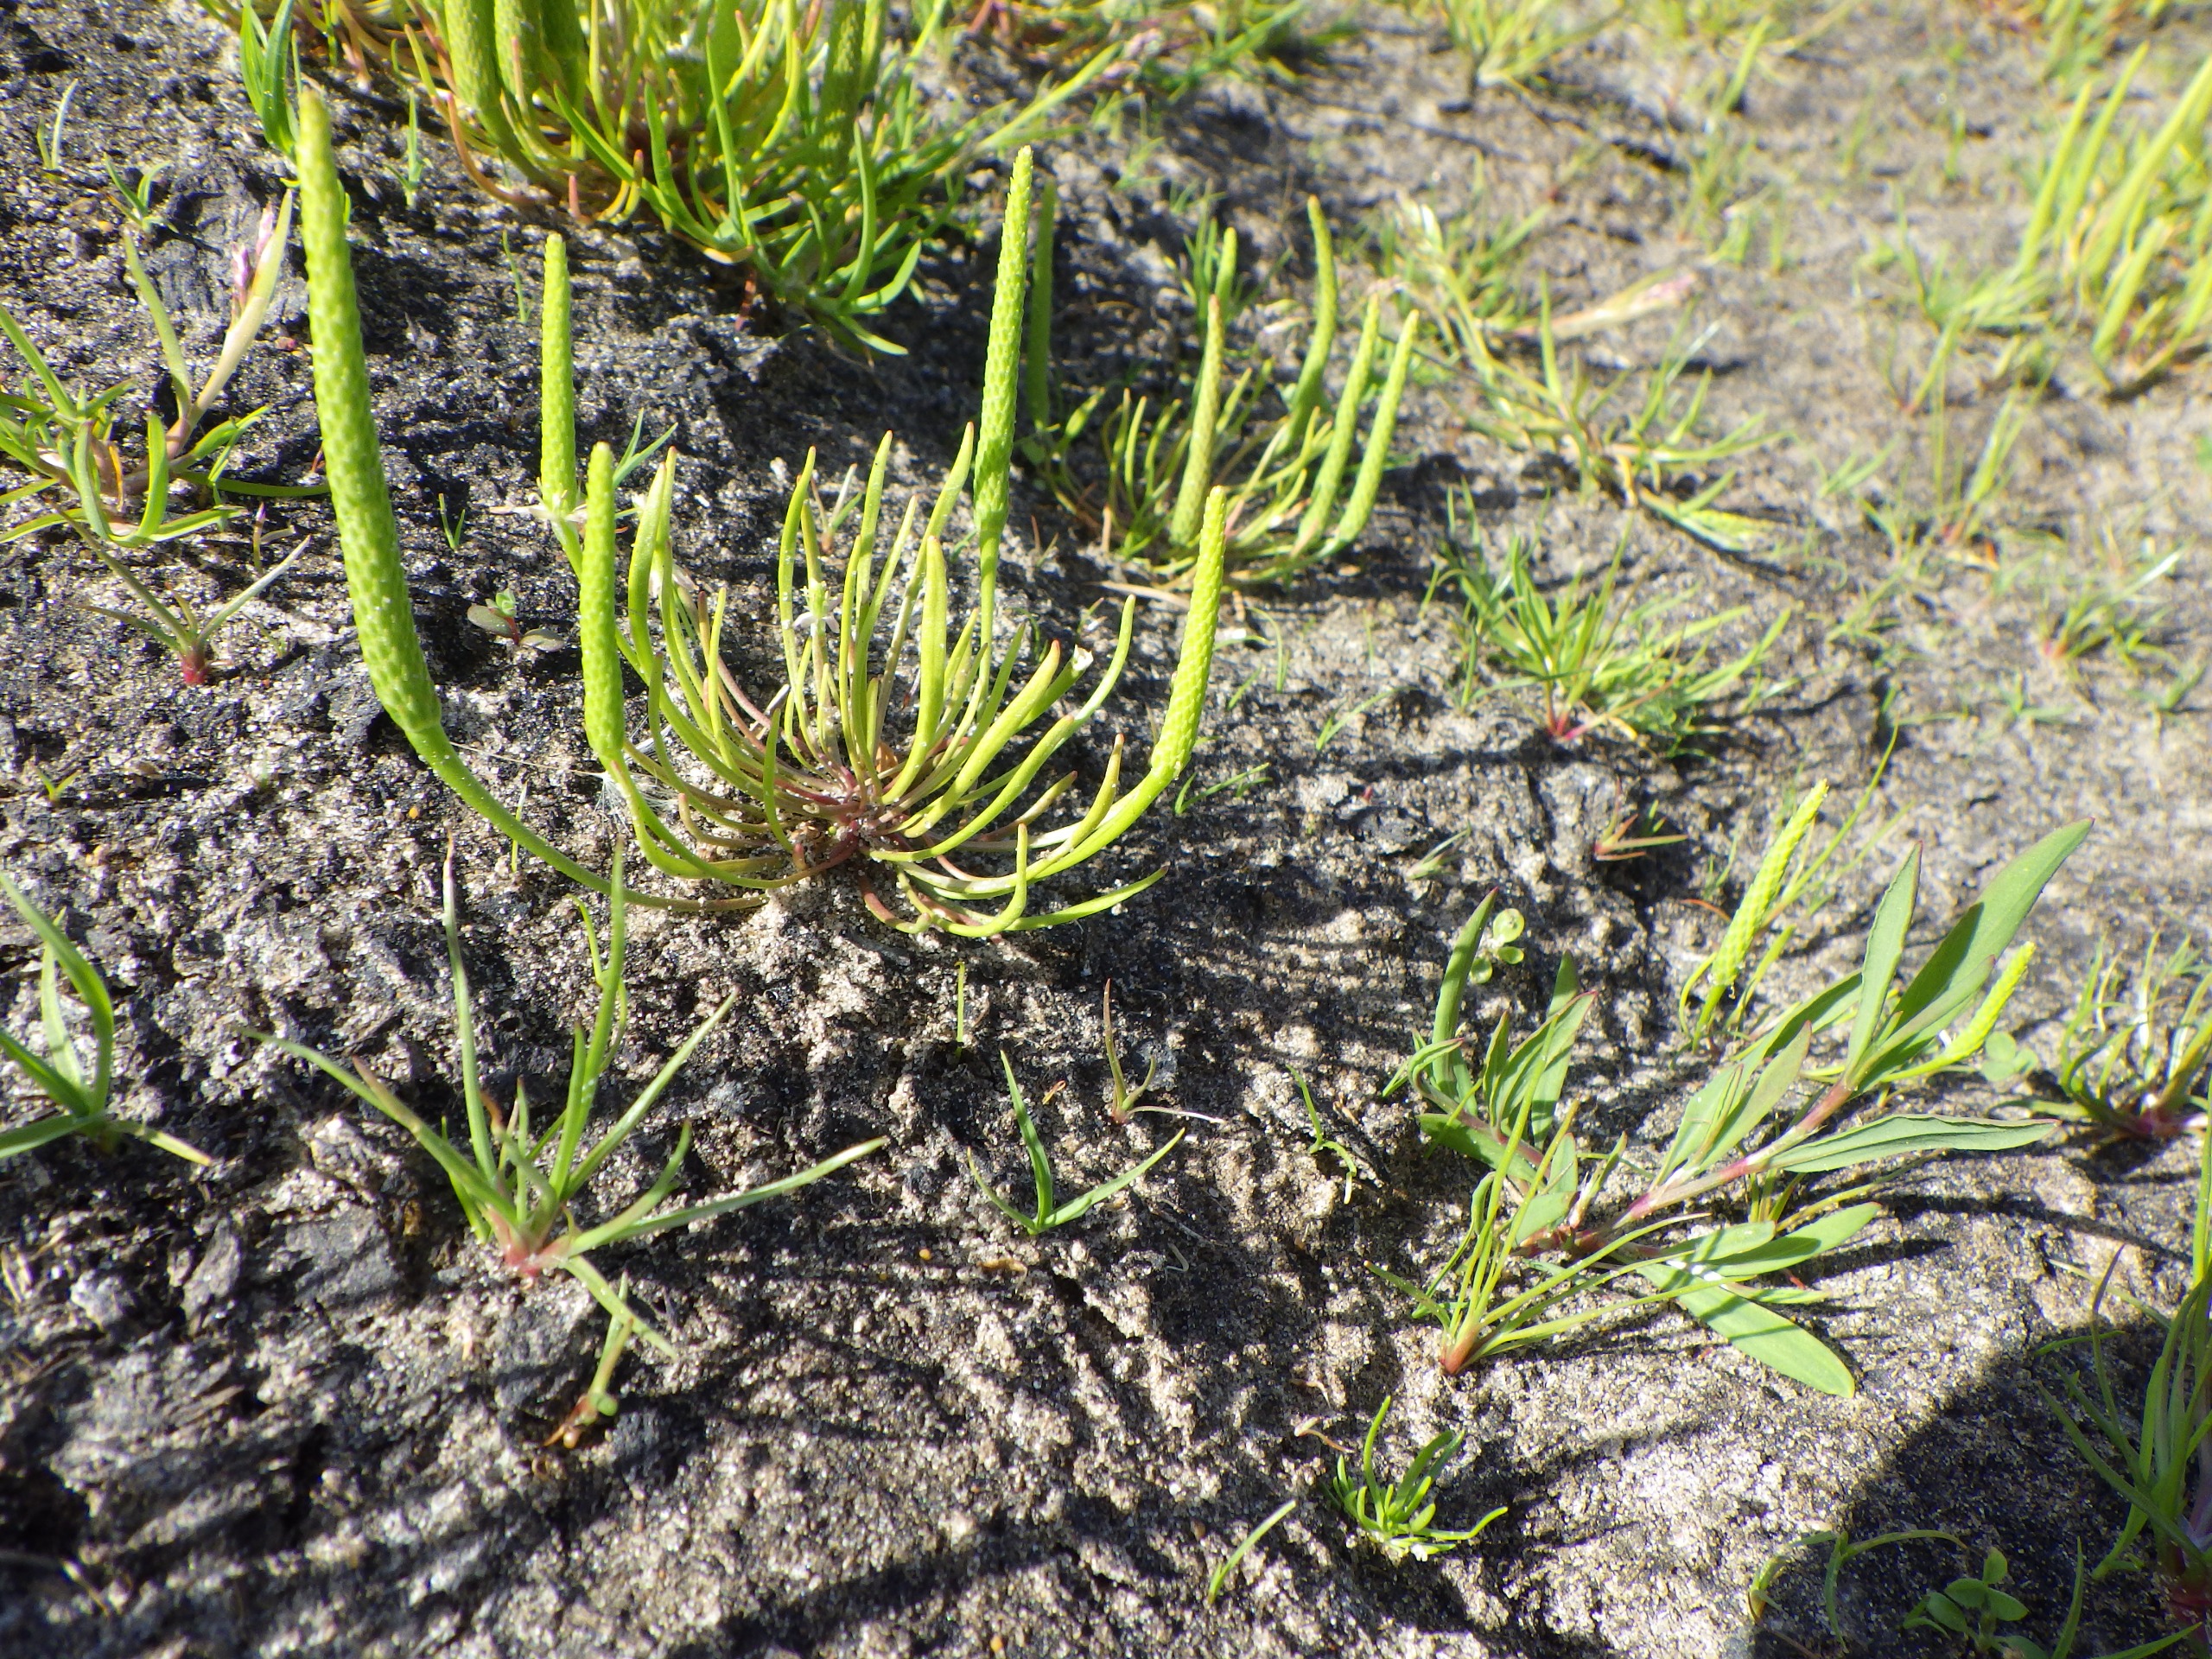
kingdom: Plantae
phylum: Tracheophyta
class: Magnoliopsida
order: Ranunculales
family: Ranunculaceae
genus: Myosurus
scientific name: Myosurus minimus
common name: Musehale
